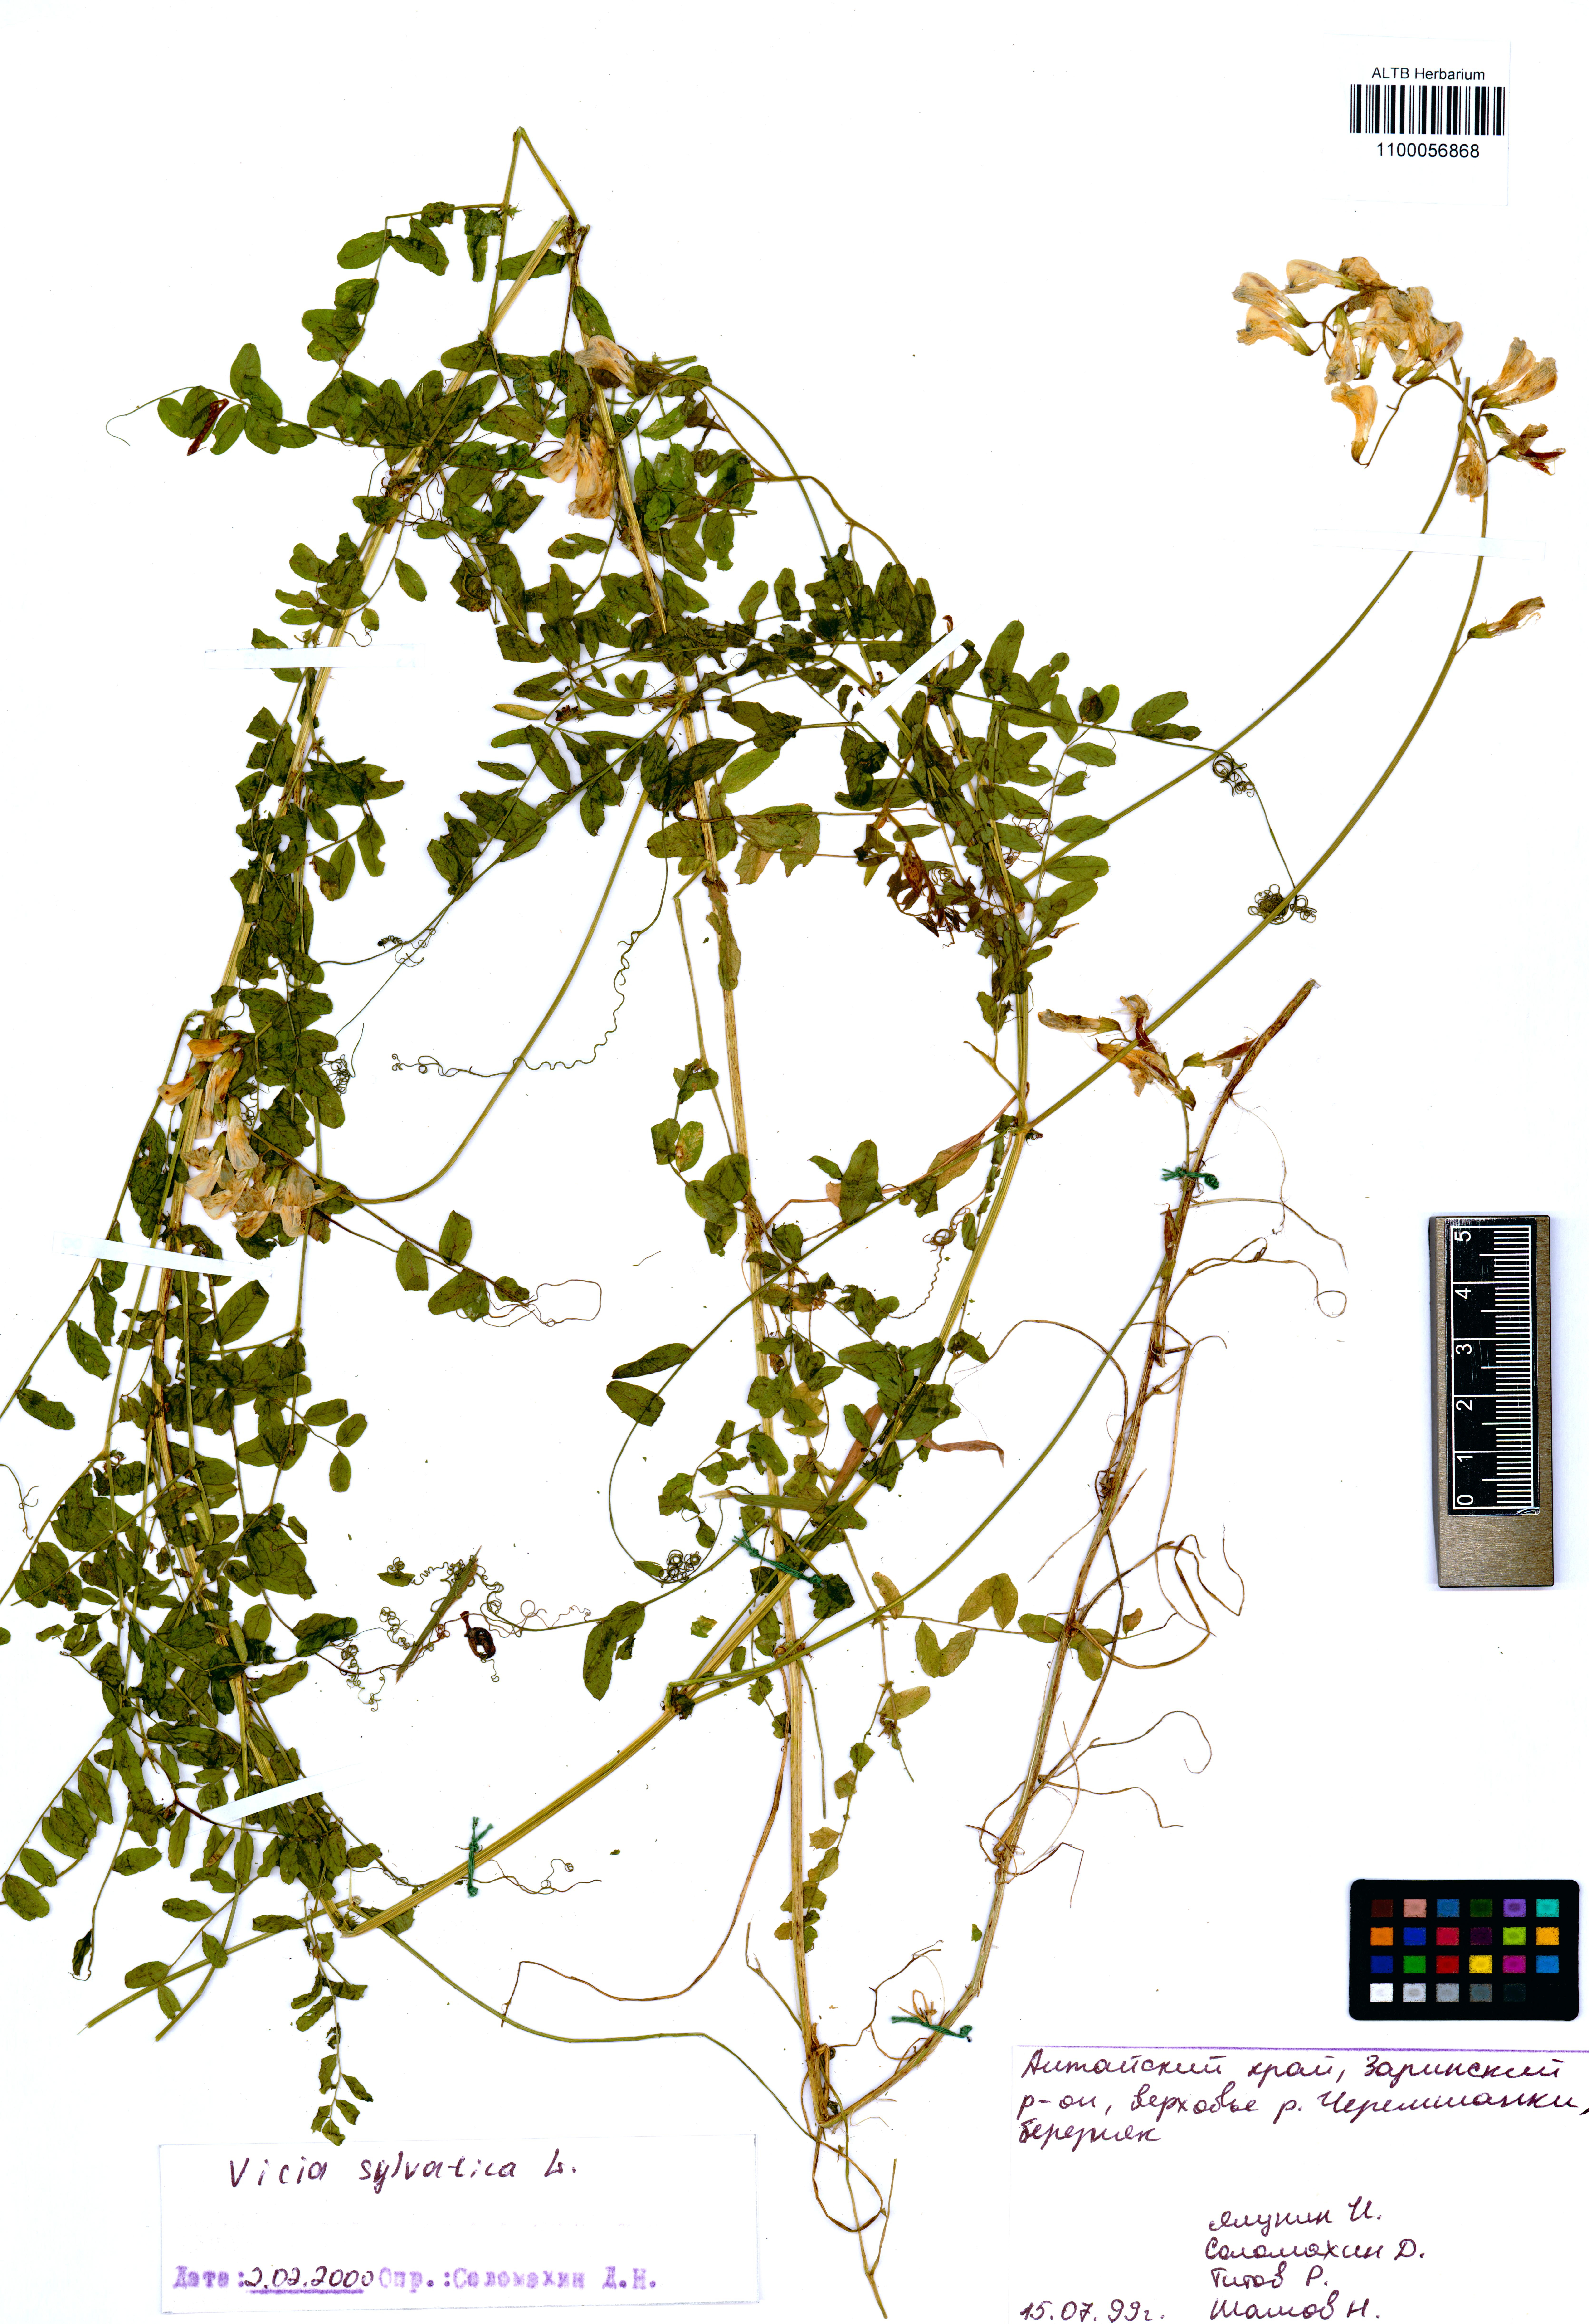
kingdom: Plantae
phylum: Tracheophyta
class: Magnoliopsida
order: Fabales
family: Fabaceae
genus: Vicia
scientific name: Vicia sylvatica
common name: Wood vetch
